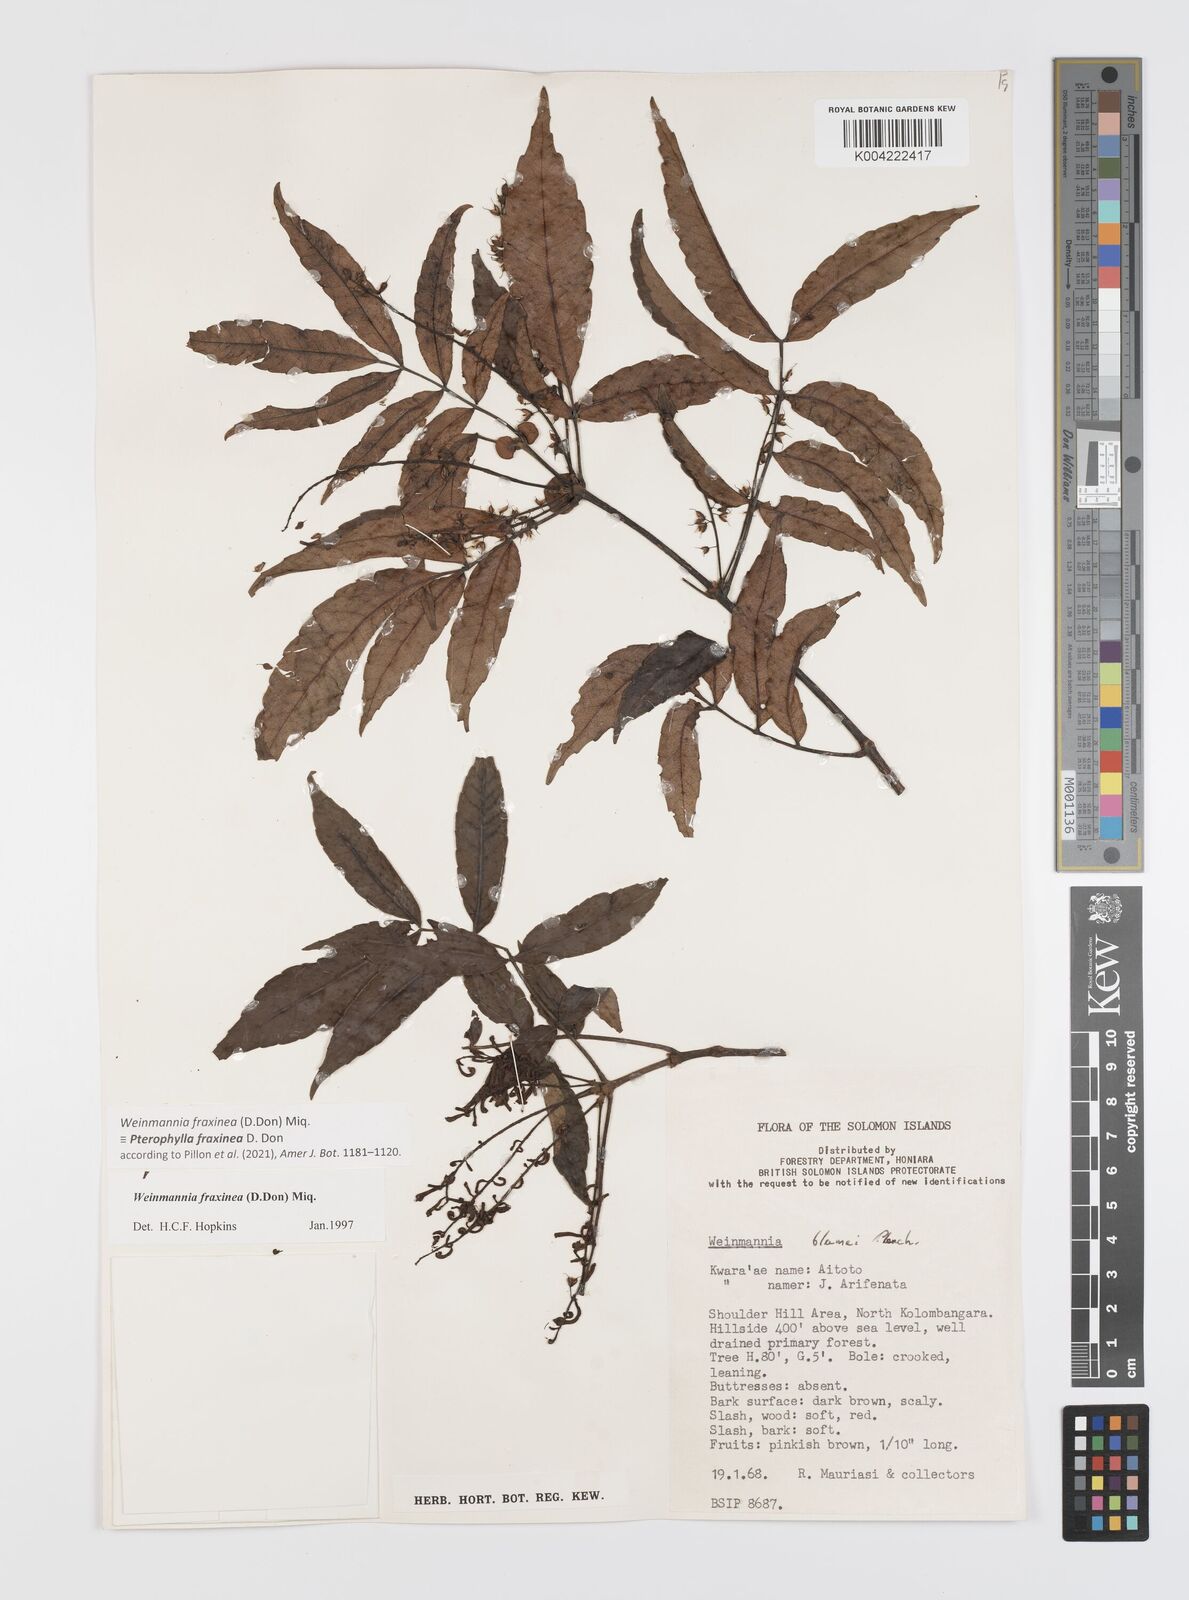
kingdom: Plantae
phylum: Tracheophyta
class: Magnoliopsida
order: Oxalidales
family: Cunoniaceae
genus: Pterophylla
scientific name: Pterophylla fraxinea
